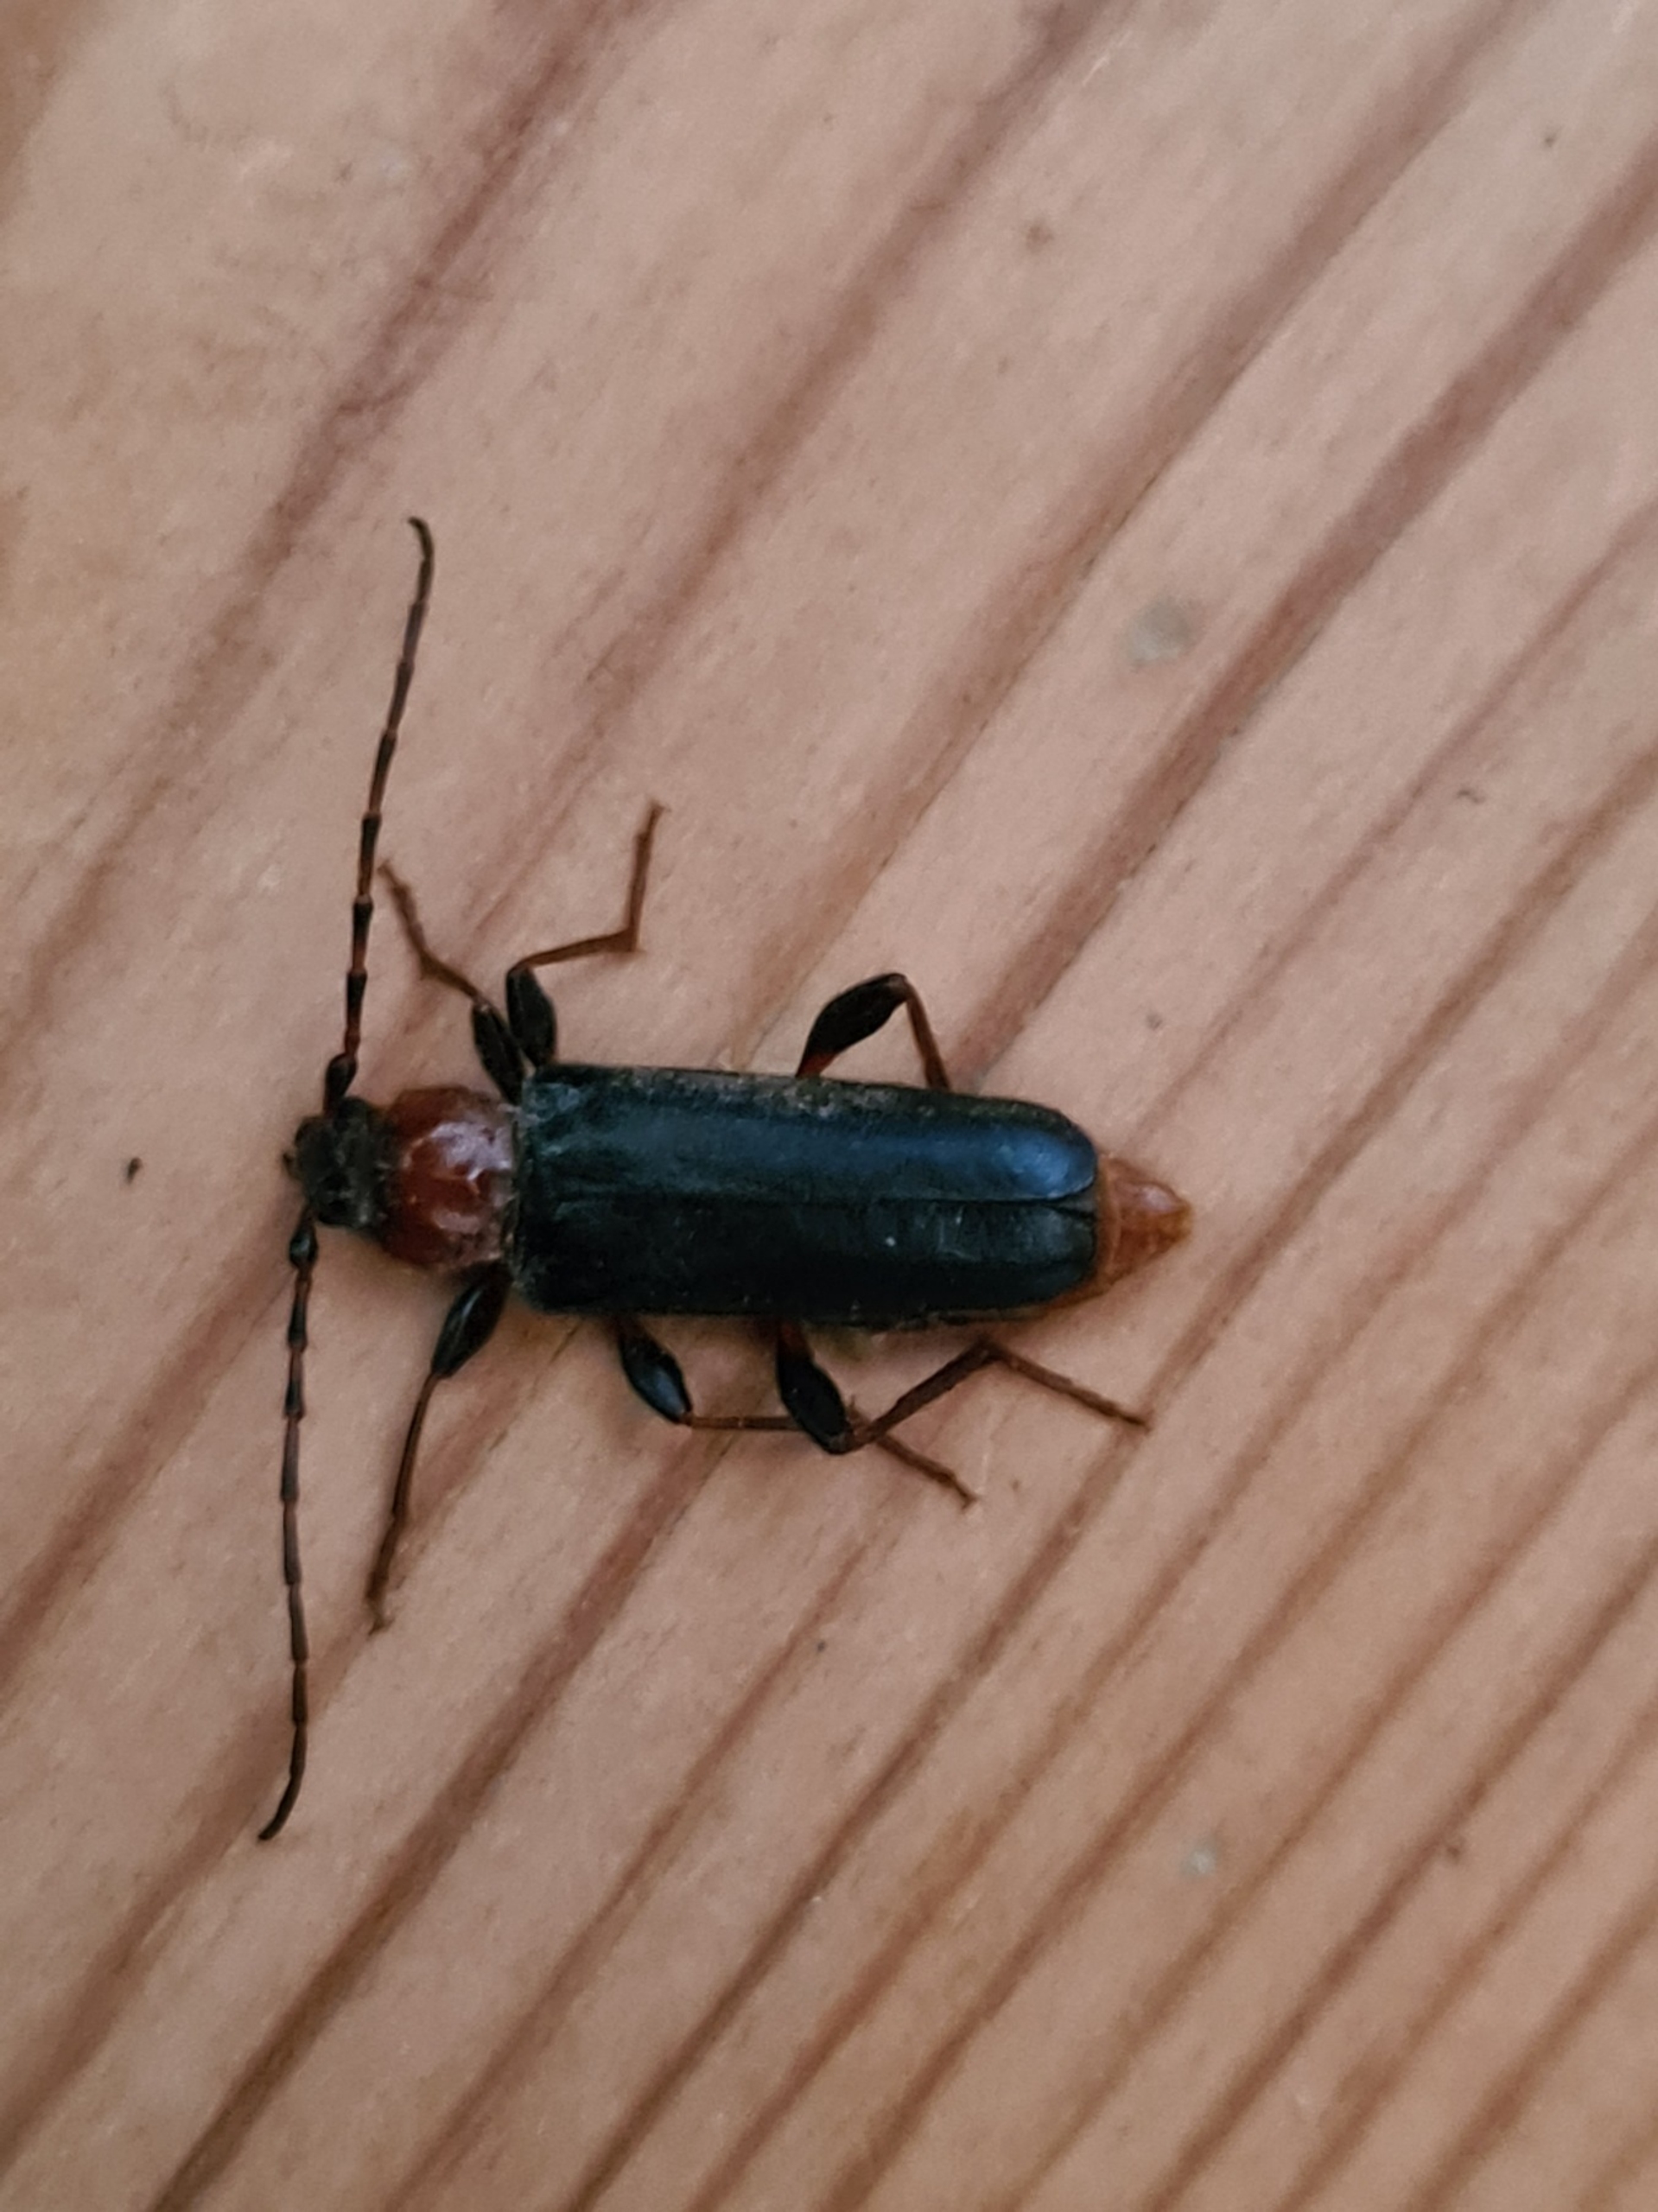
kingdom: Animalia
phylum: Arthropoda
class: Insecta
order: Coleoptera
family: Cerambycidae
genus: Phymatodes
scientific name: Phymatodes testaceus
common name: Bøgebuk
